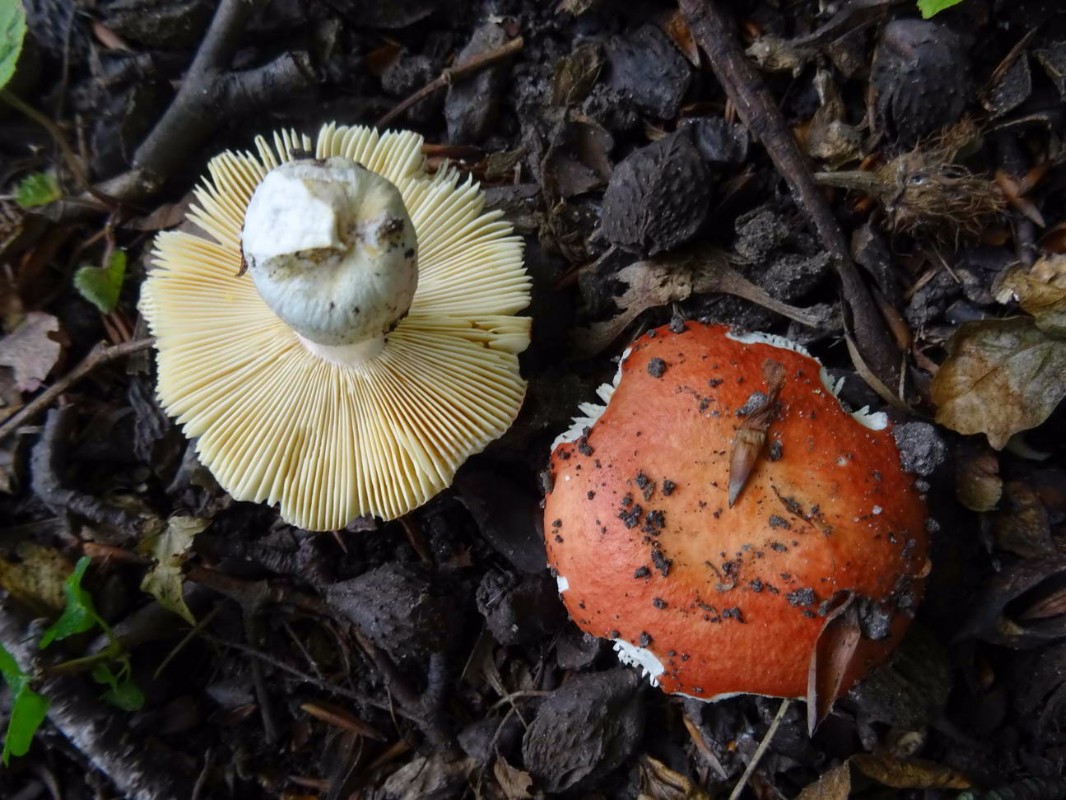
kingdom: Fungi
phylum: Basidiomycota
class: Agaricomycetes
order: Russulales
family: Russulaceae
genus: Russula
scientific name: Russula
